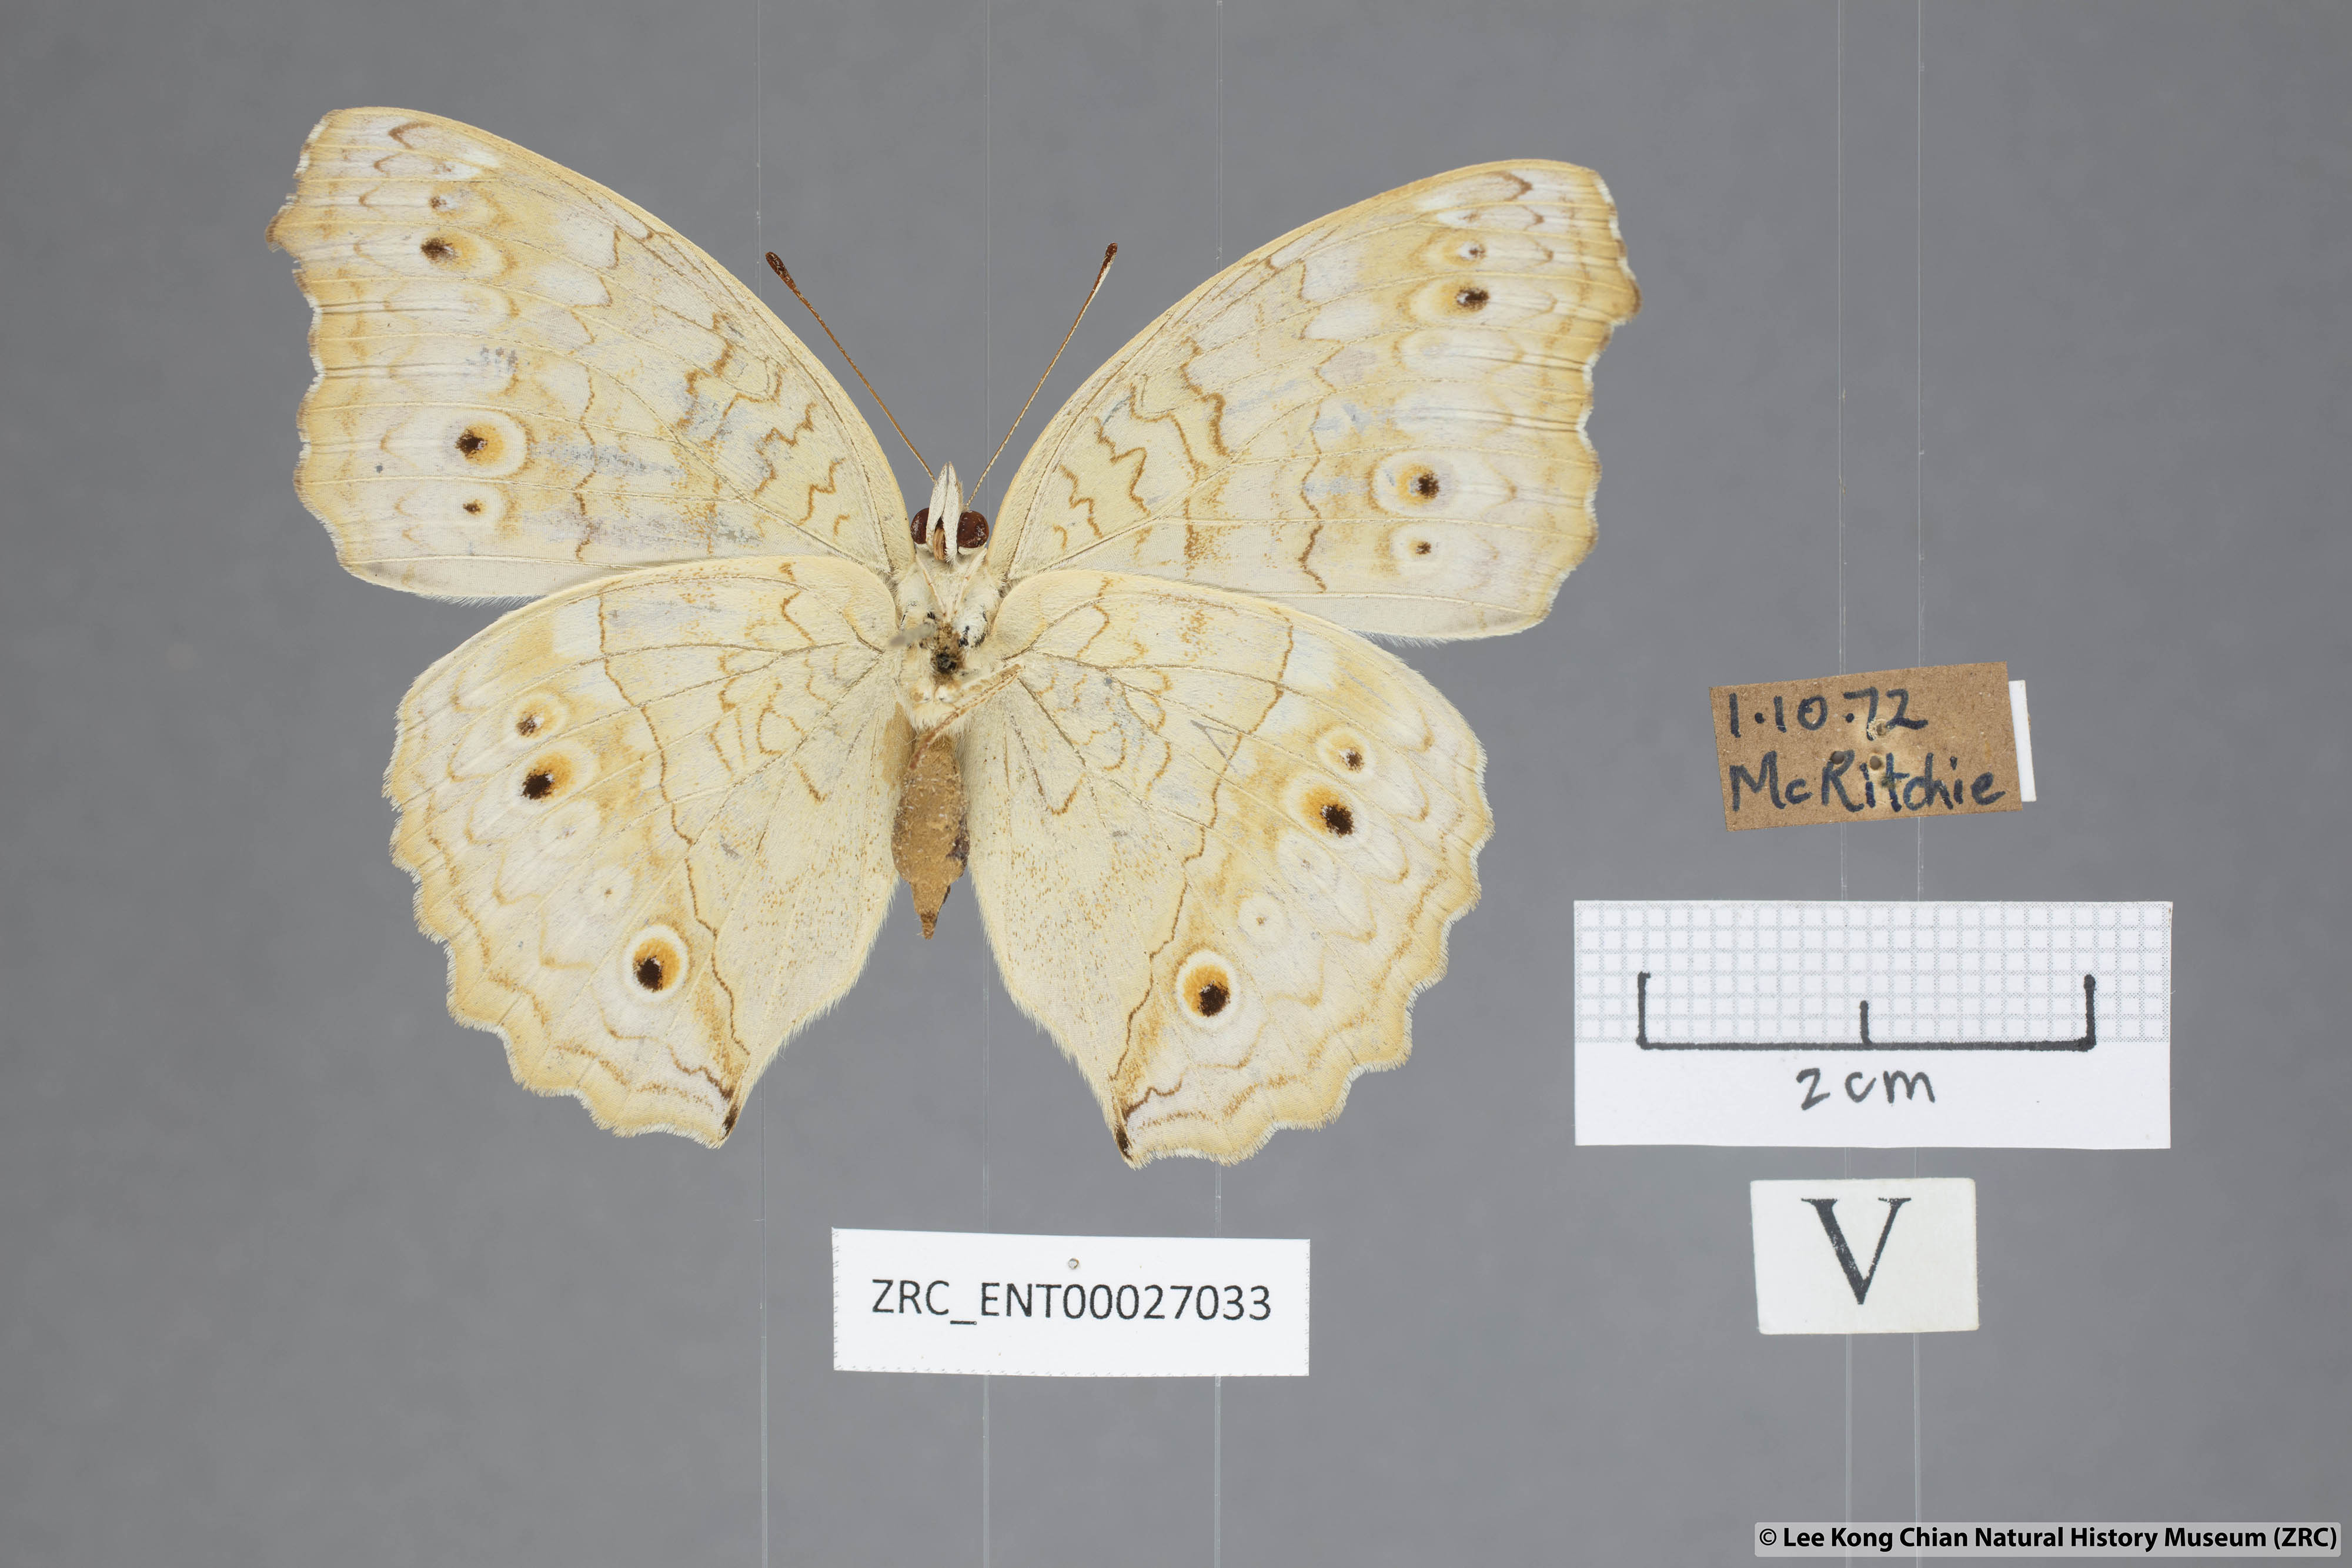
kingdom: Animalia
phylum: Arthropoda
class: Insecta
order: Lepidoptera
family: Nymphalidae
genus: Junonia
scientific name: Junonia atlites
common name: Grey pansy
